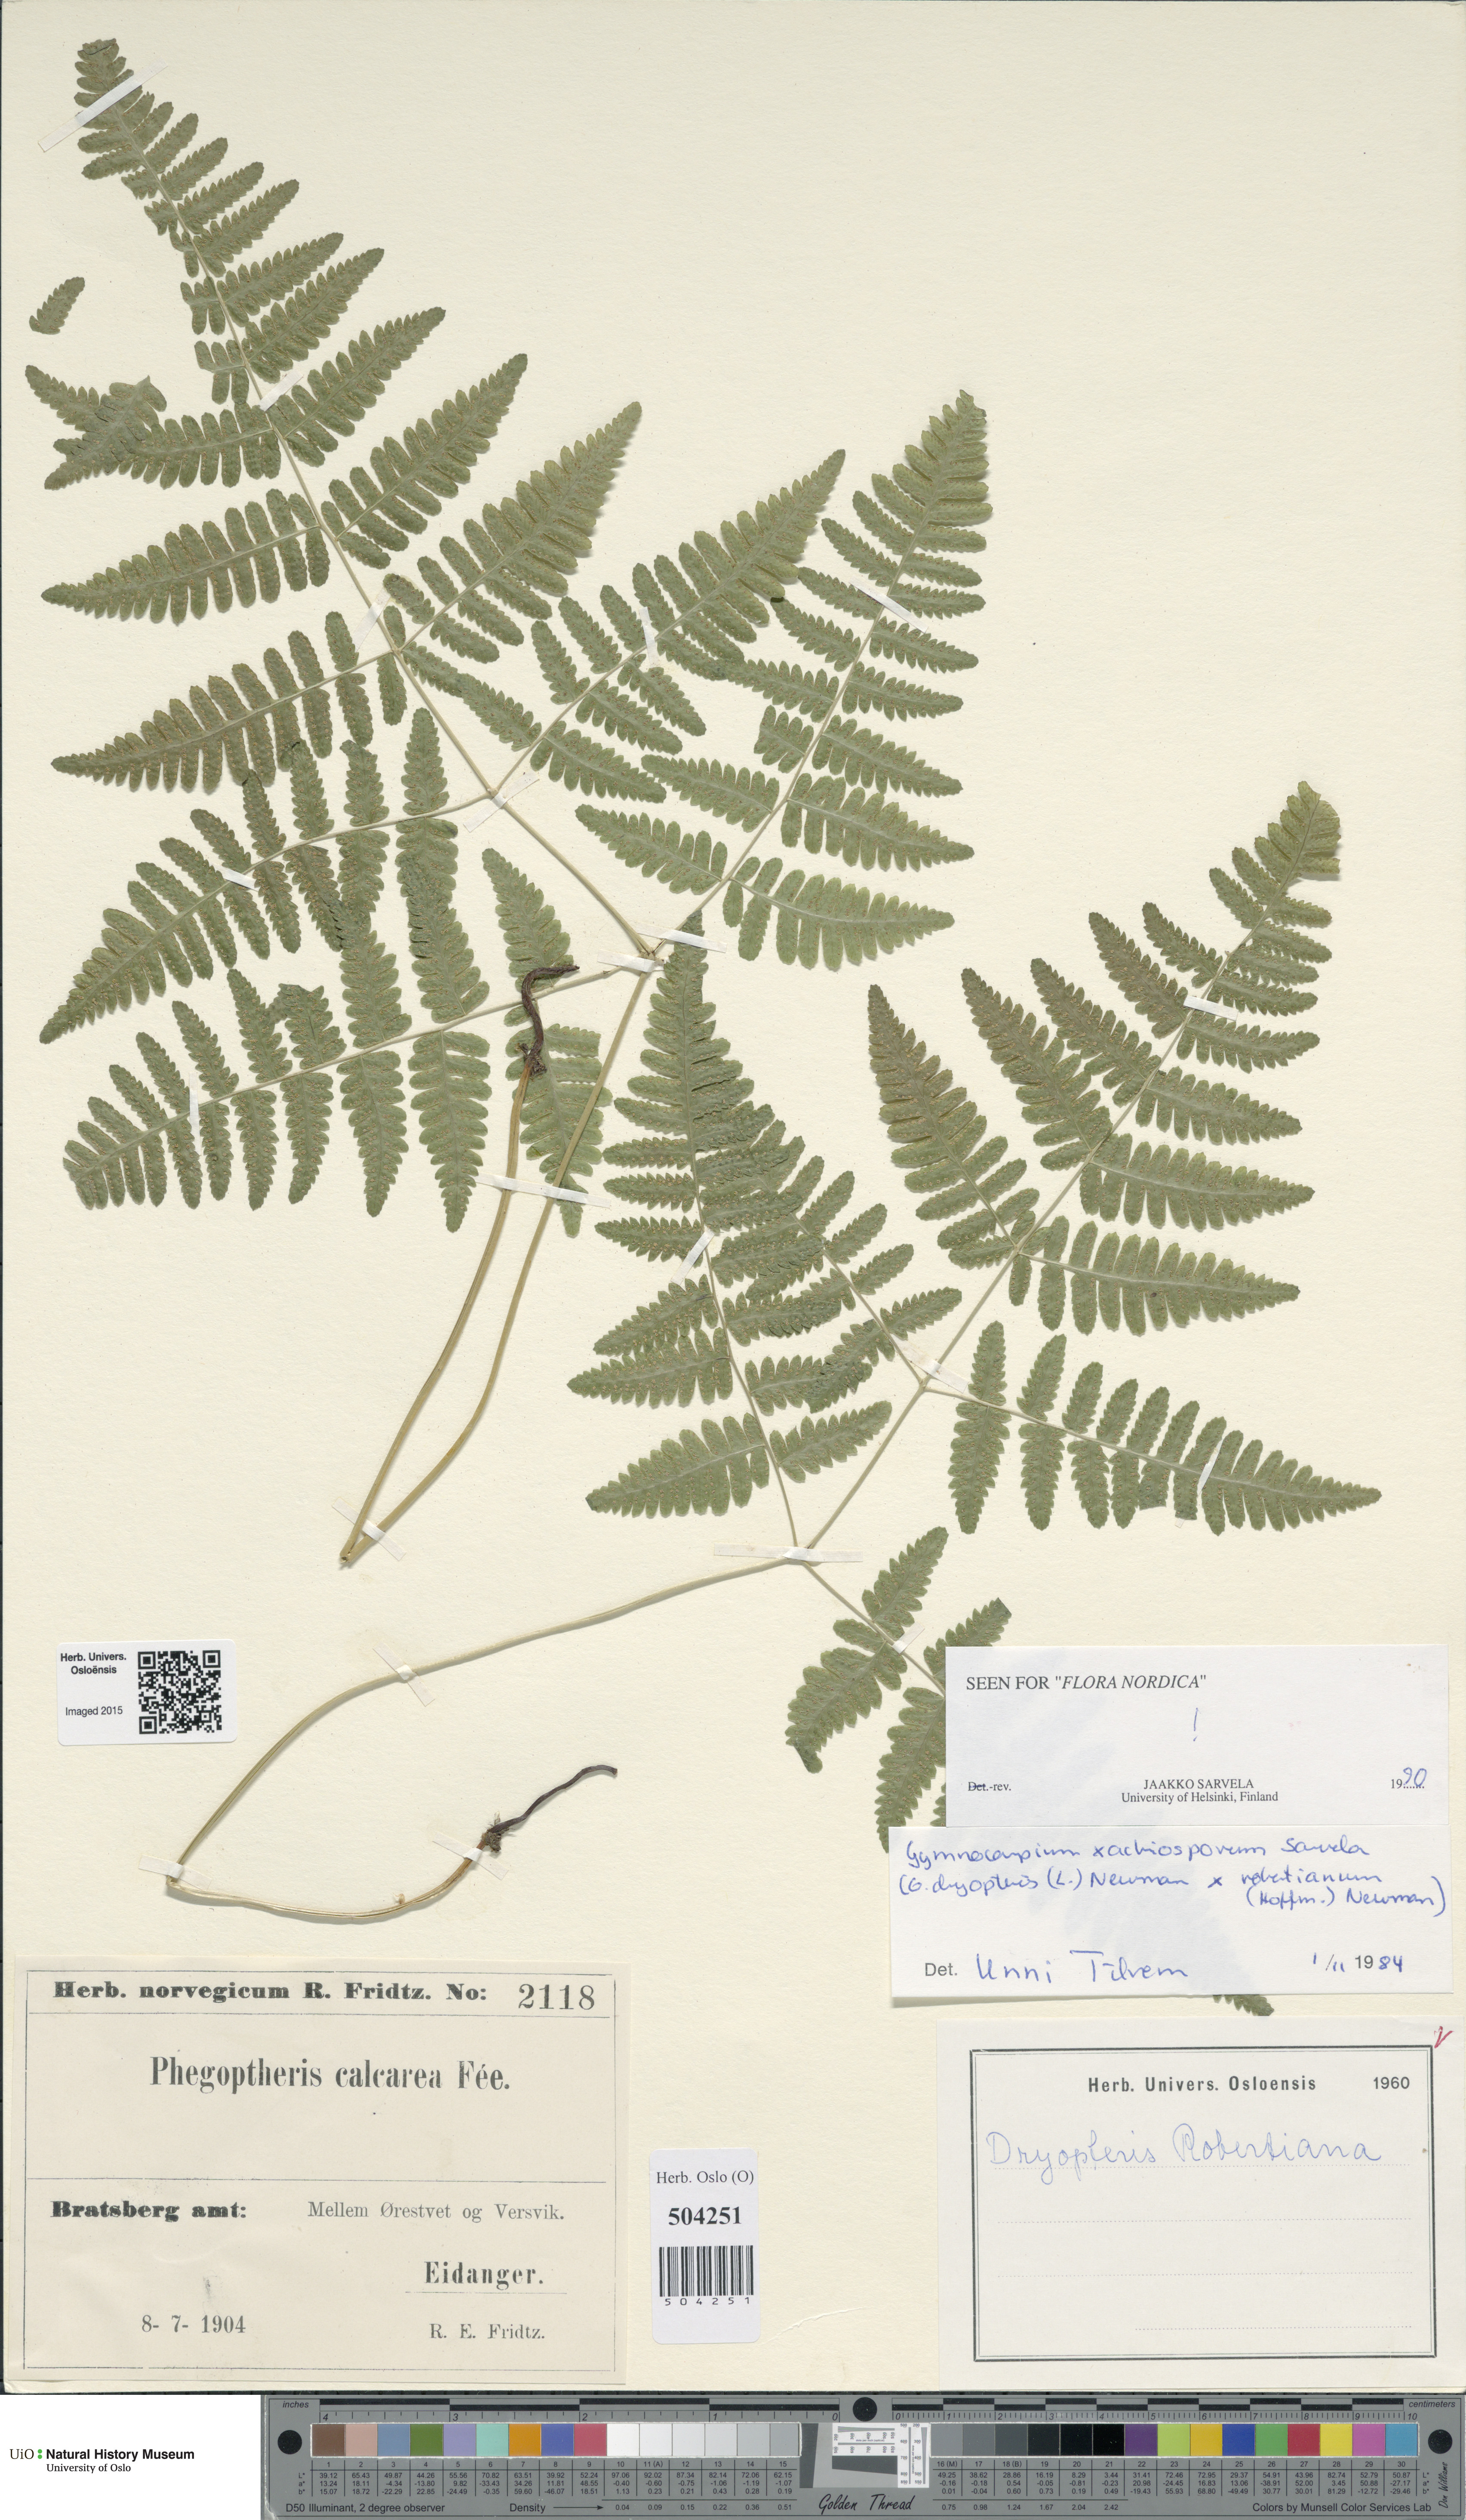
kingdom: Plantae
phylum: Tracheophyta
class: Polypodiopsida
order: Polypodiales
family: Cystopteridaceae
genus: Gymnocarpium
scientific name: Gymnocarpium
